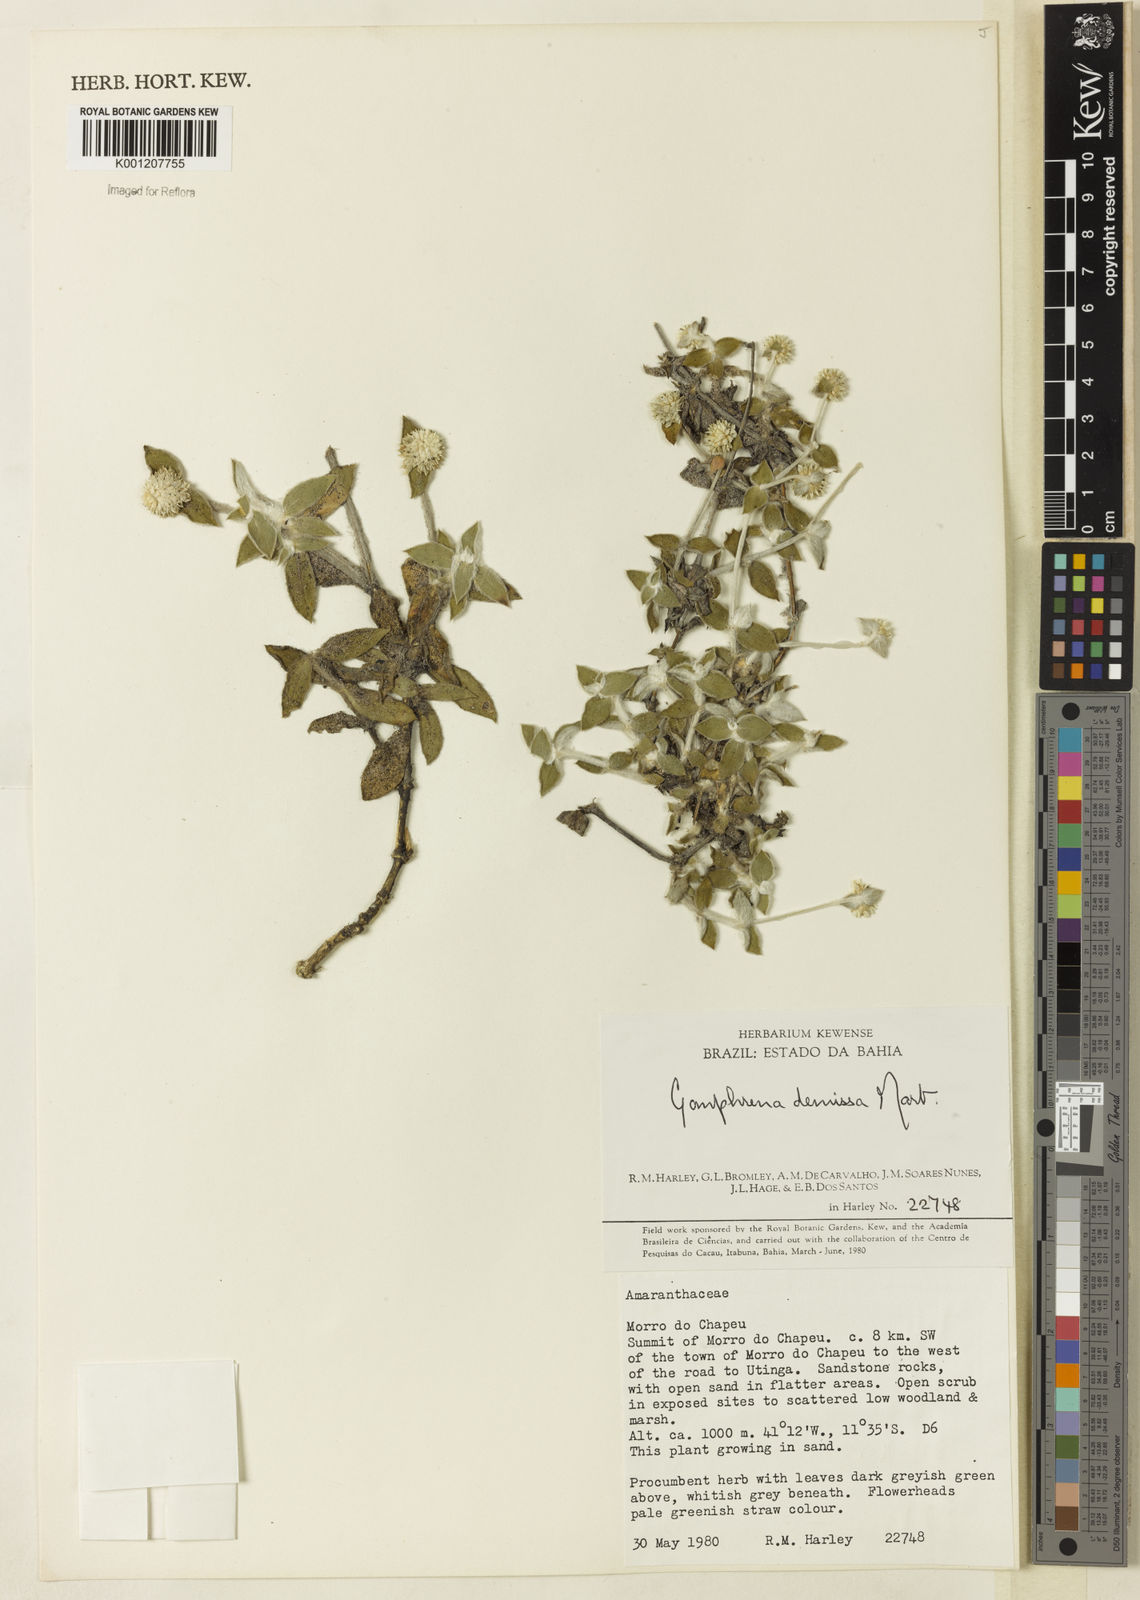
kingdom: Plantae
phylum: Tracheophyta
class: Magnoliopsida
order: Caryophyllales
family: Amaranthaceae
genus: Gomphrena
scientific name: Gomphrena demissa
